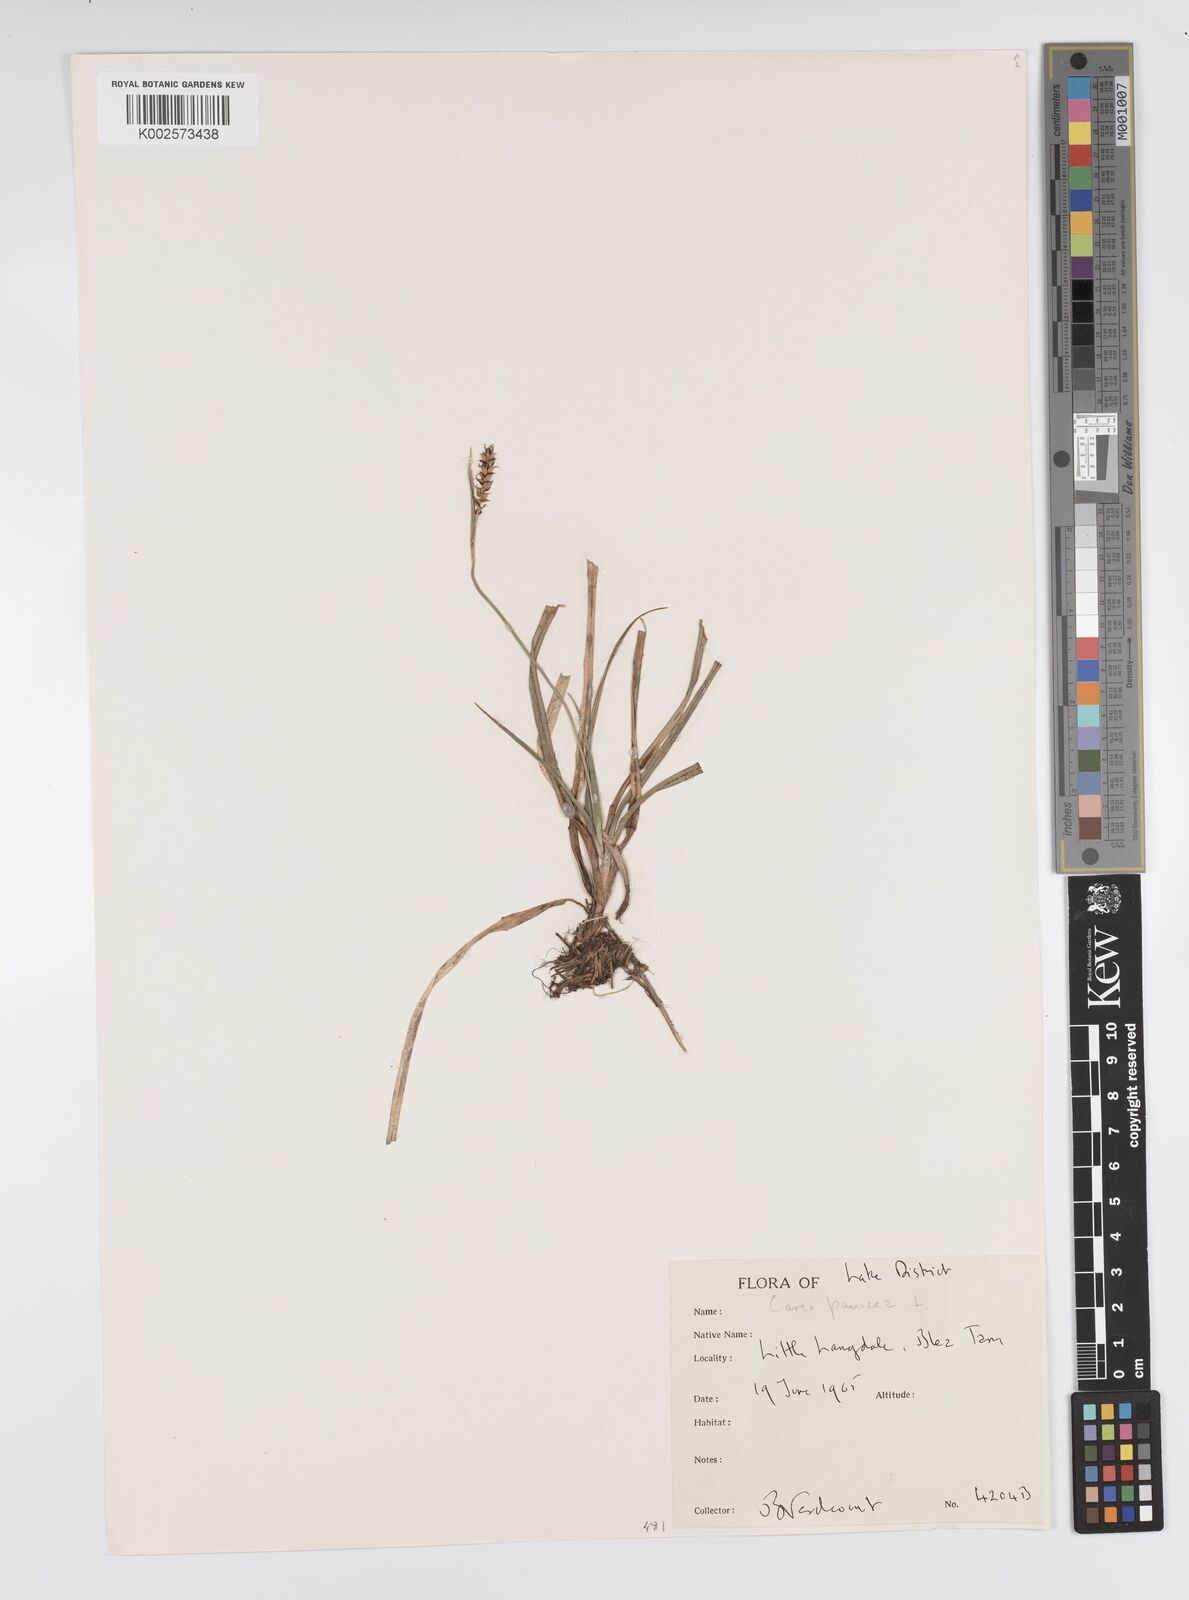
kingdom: Plantae
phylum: Tracheophyta
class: Liliopsida
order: Poales
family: Cyperaceae
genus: Carex
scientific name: Carex panicea
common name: Carnation sedge
